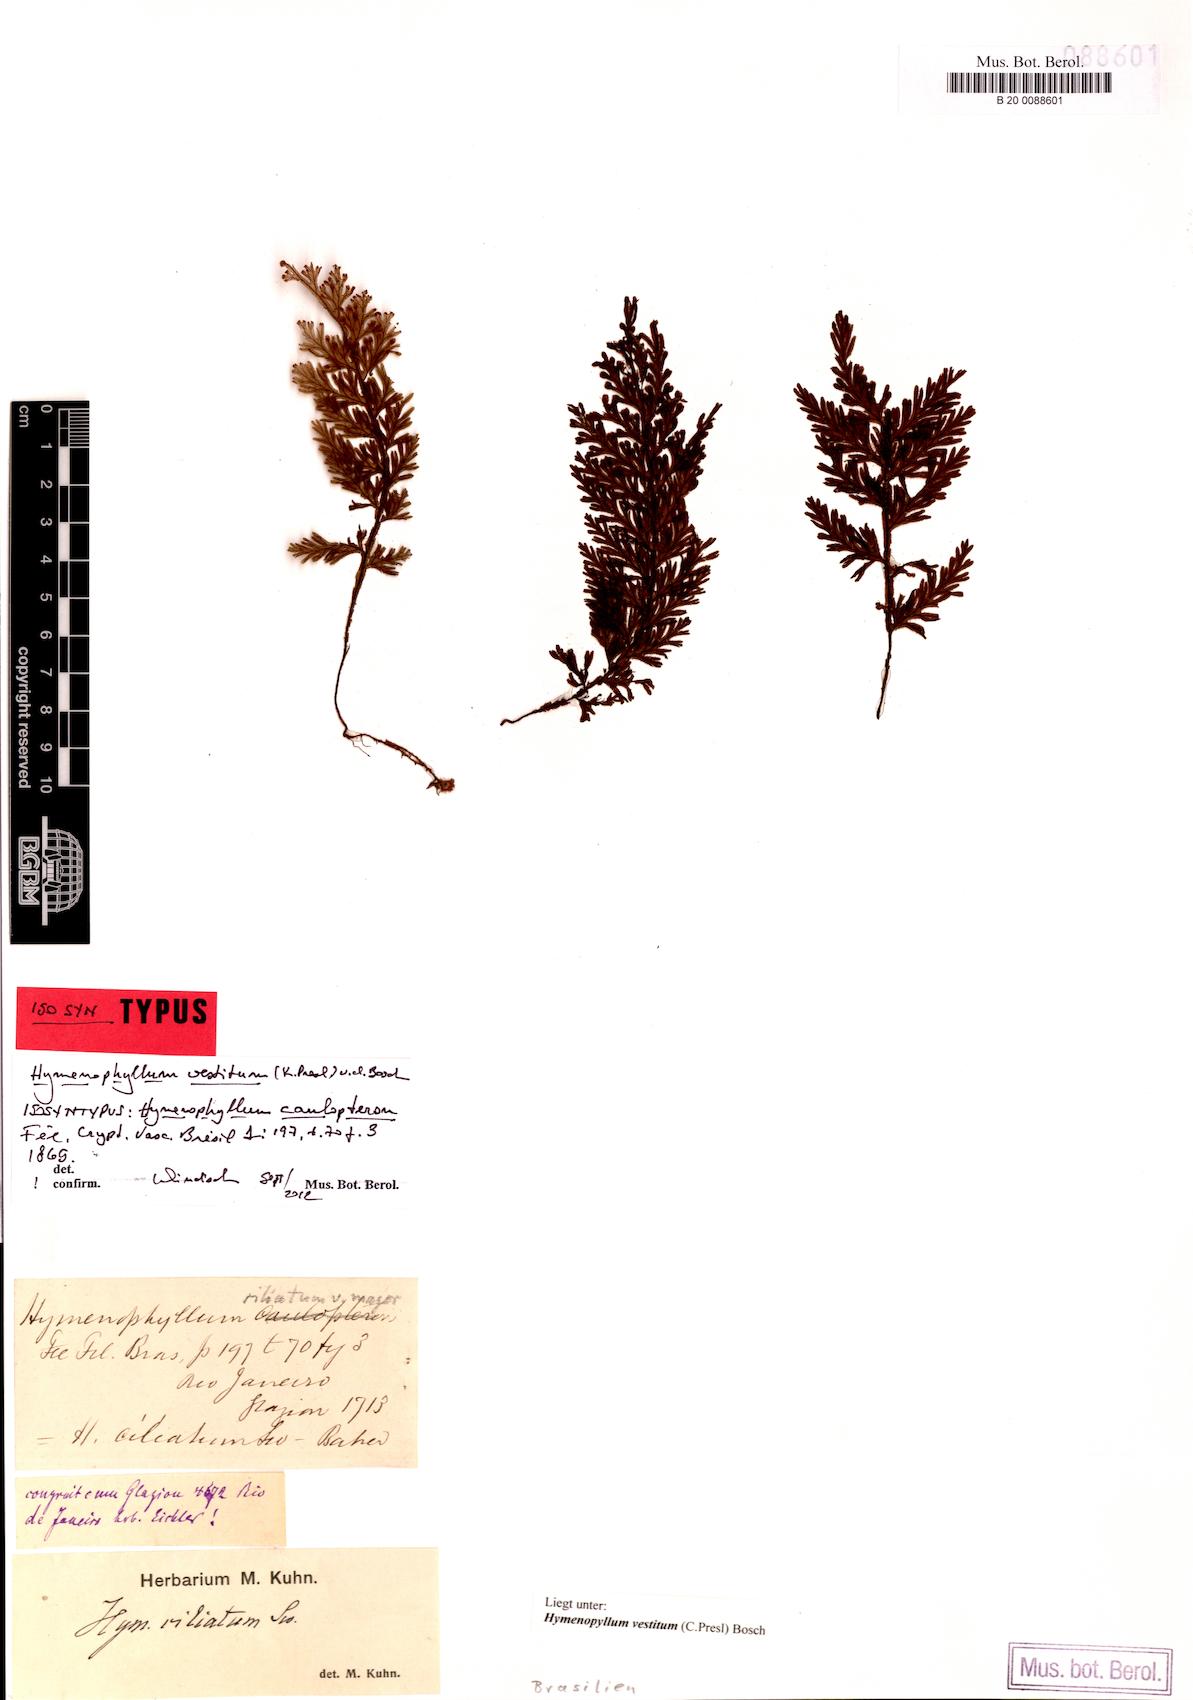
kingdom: Plantae
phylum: Tracheophyta
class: Polypodiopsida
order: Hymenophyllales
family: Hymenophyllaceae
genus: Hymenophyllum
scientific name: Hymenophyllum vestitum
